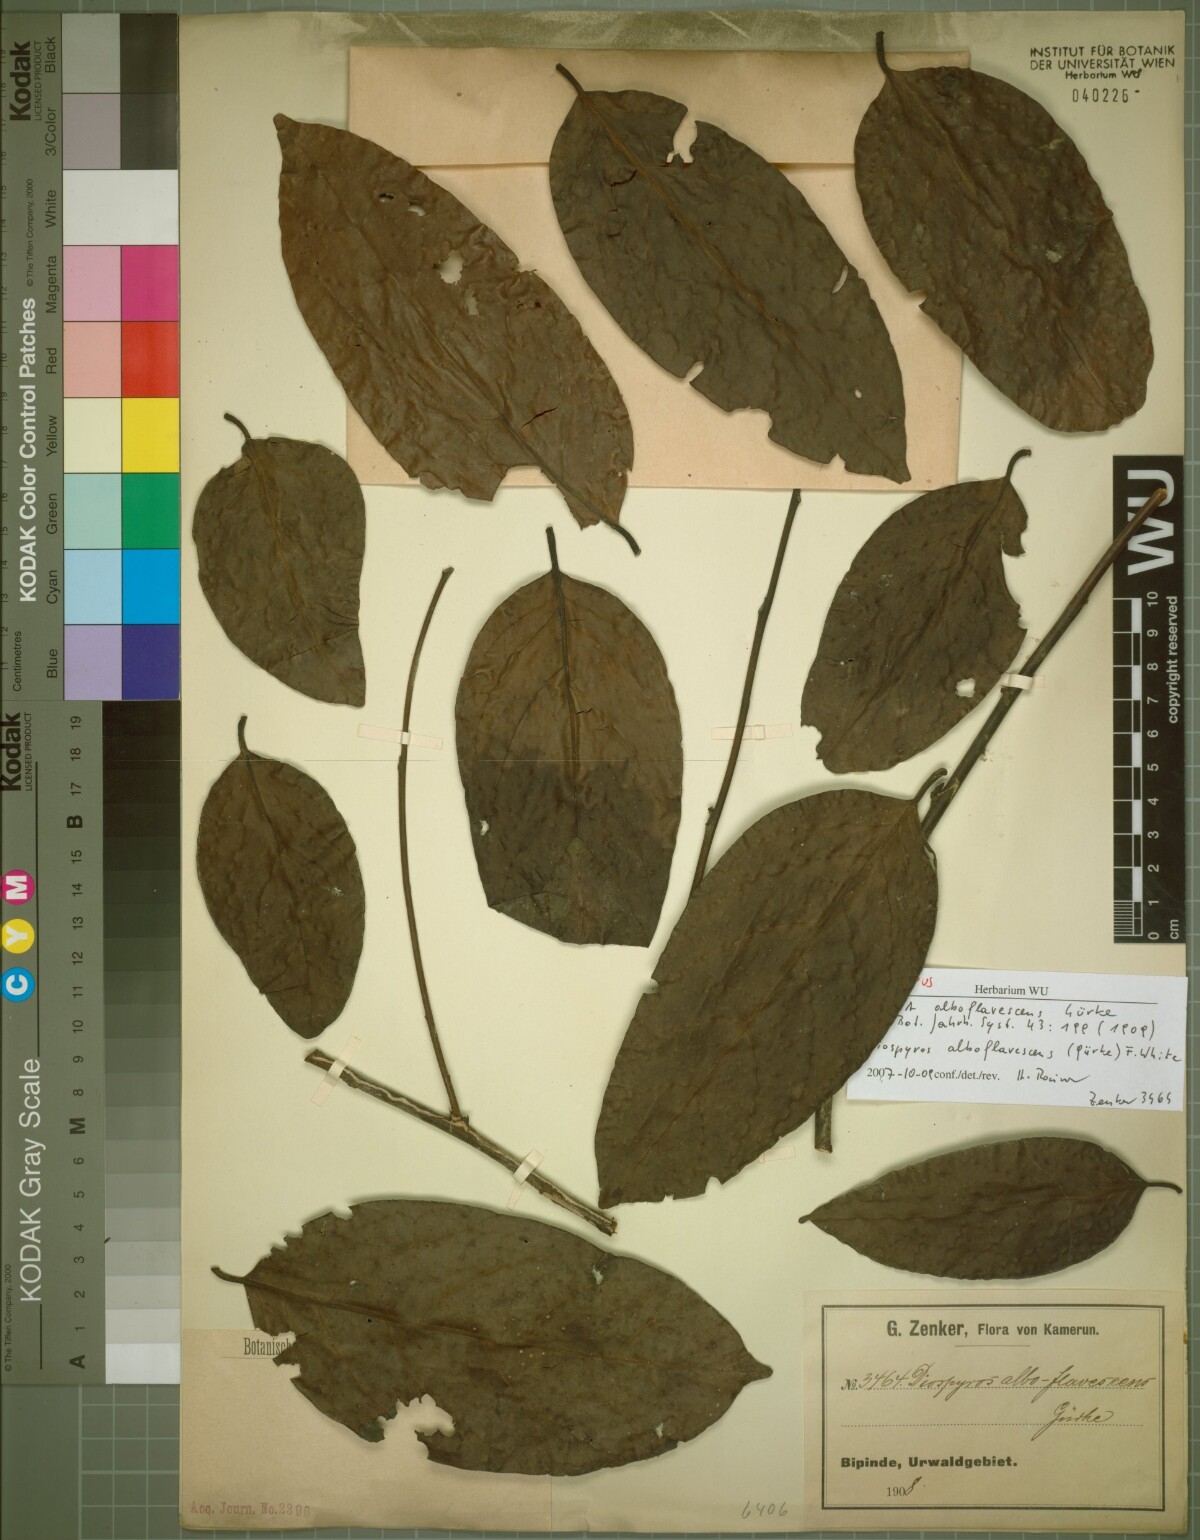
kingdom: Plantae
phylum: Tracheophyta
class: Magnoliopsida
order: Ericales
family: Ebenaceae
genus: Diospyros
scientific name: Diospyros alboflavescens
